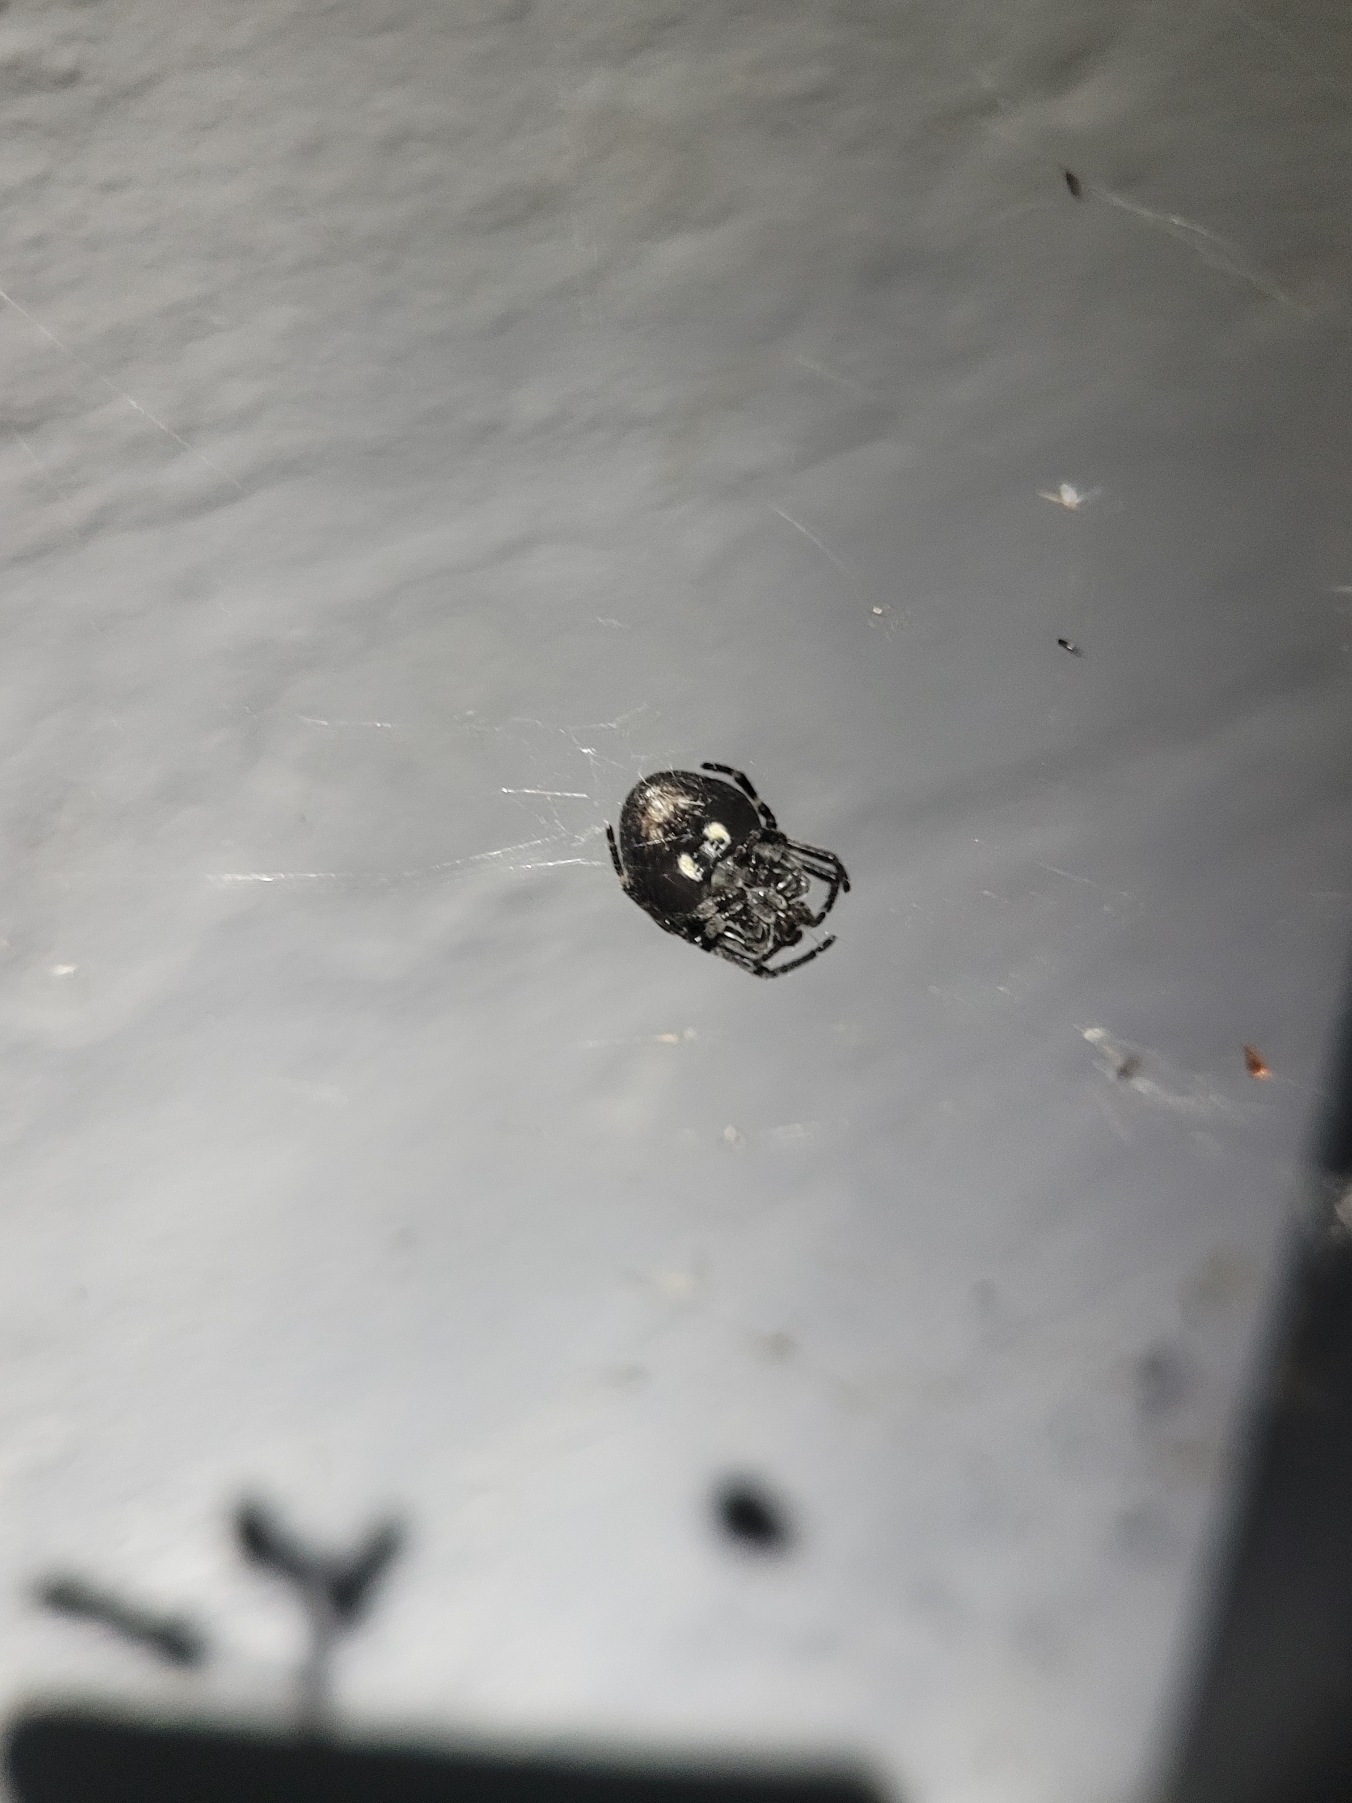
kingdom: Animalia
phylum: Arthropoda
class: Arachnida
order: Araneae
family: Araneidae
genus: Nuctenea
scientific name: Nuctenea umbratica
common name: Flad hjulspinder
